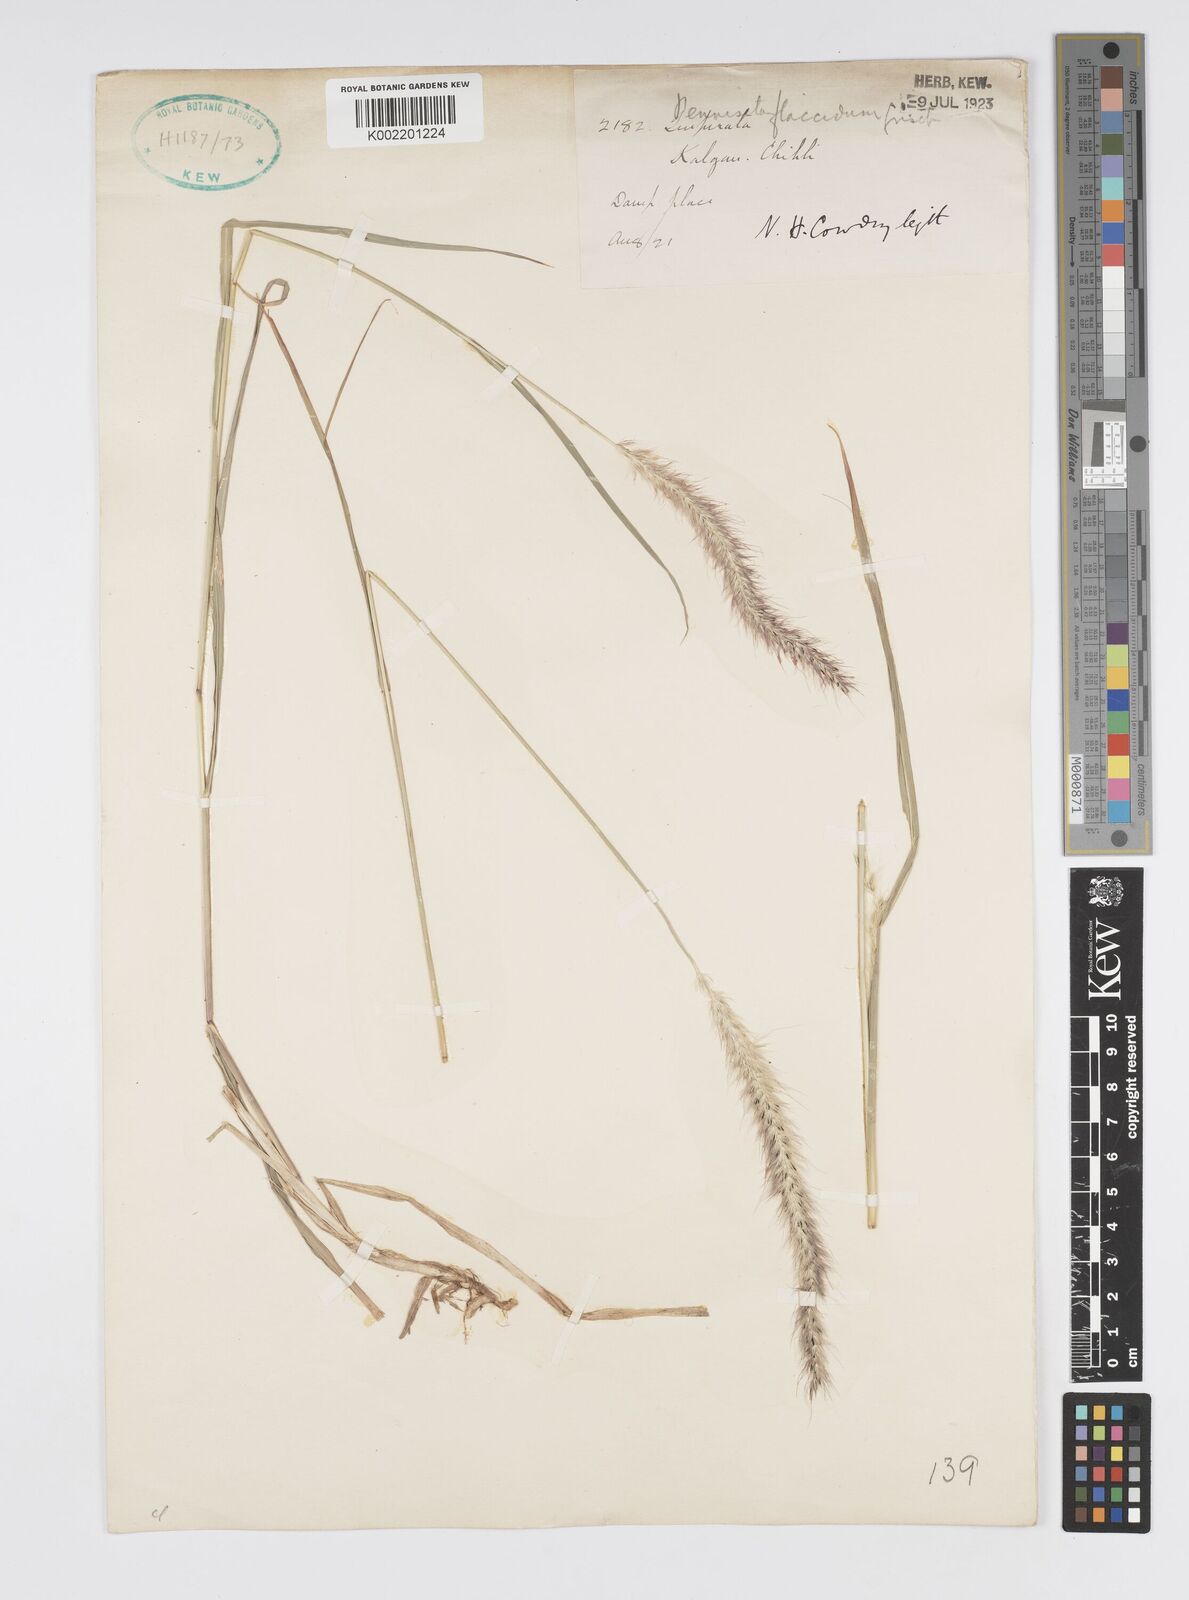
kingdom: Plantae
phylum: Tracheophyta
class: Liliopsida
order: Poales
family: Poaceae
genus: Cenchrus
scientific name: Cenchrus flaccidus
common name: Flaccid grass
